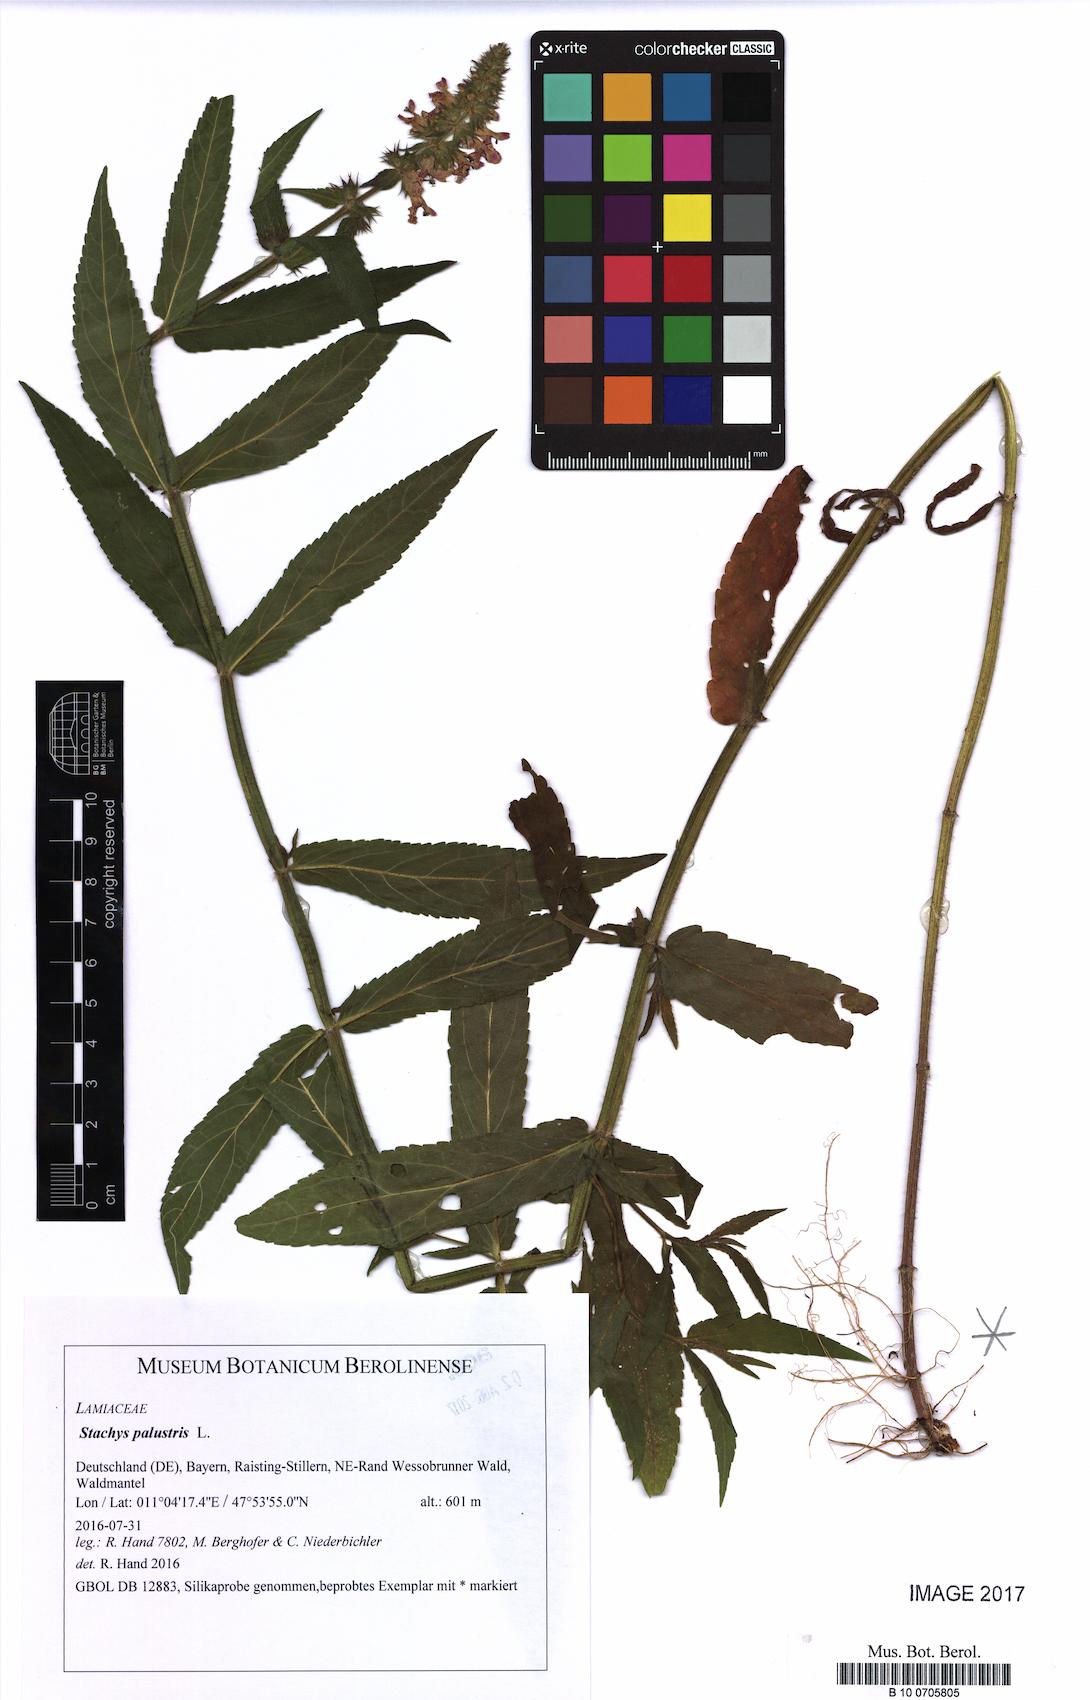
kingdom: Plantae
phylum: Tracheophyta
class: Magnoliopsida
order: Lamiales
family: Lamiaceae
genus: Stachys
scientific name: Stachys palustris
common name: Marsh woundwort
